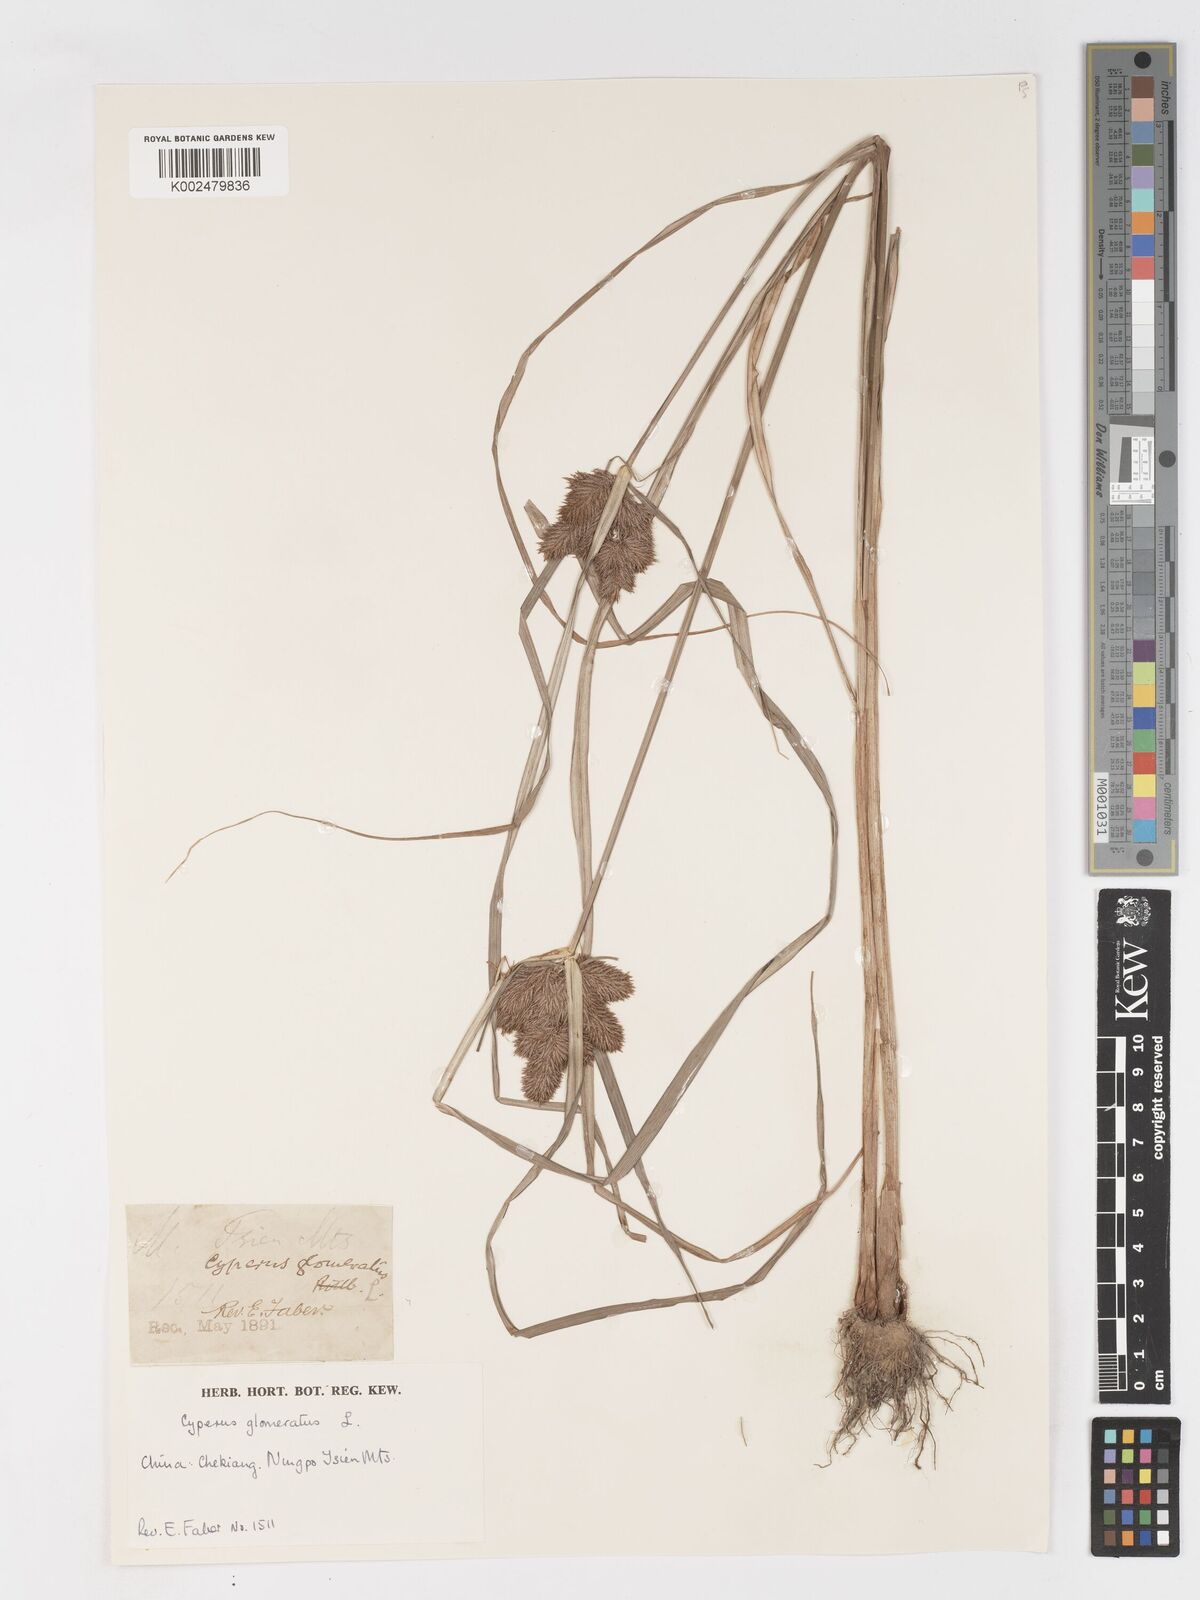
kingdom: Plantae
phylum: Tracheophyta
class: Liliopsida
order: Poales
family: Cyperaceae
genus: Cyperus
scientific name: Cyperus glomeratus
